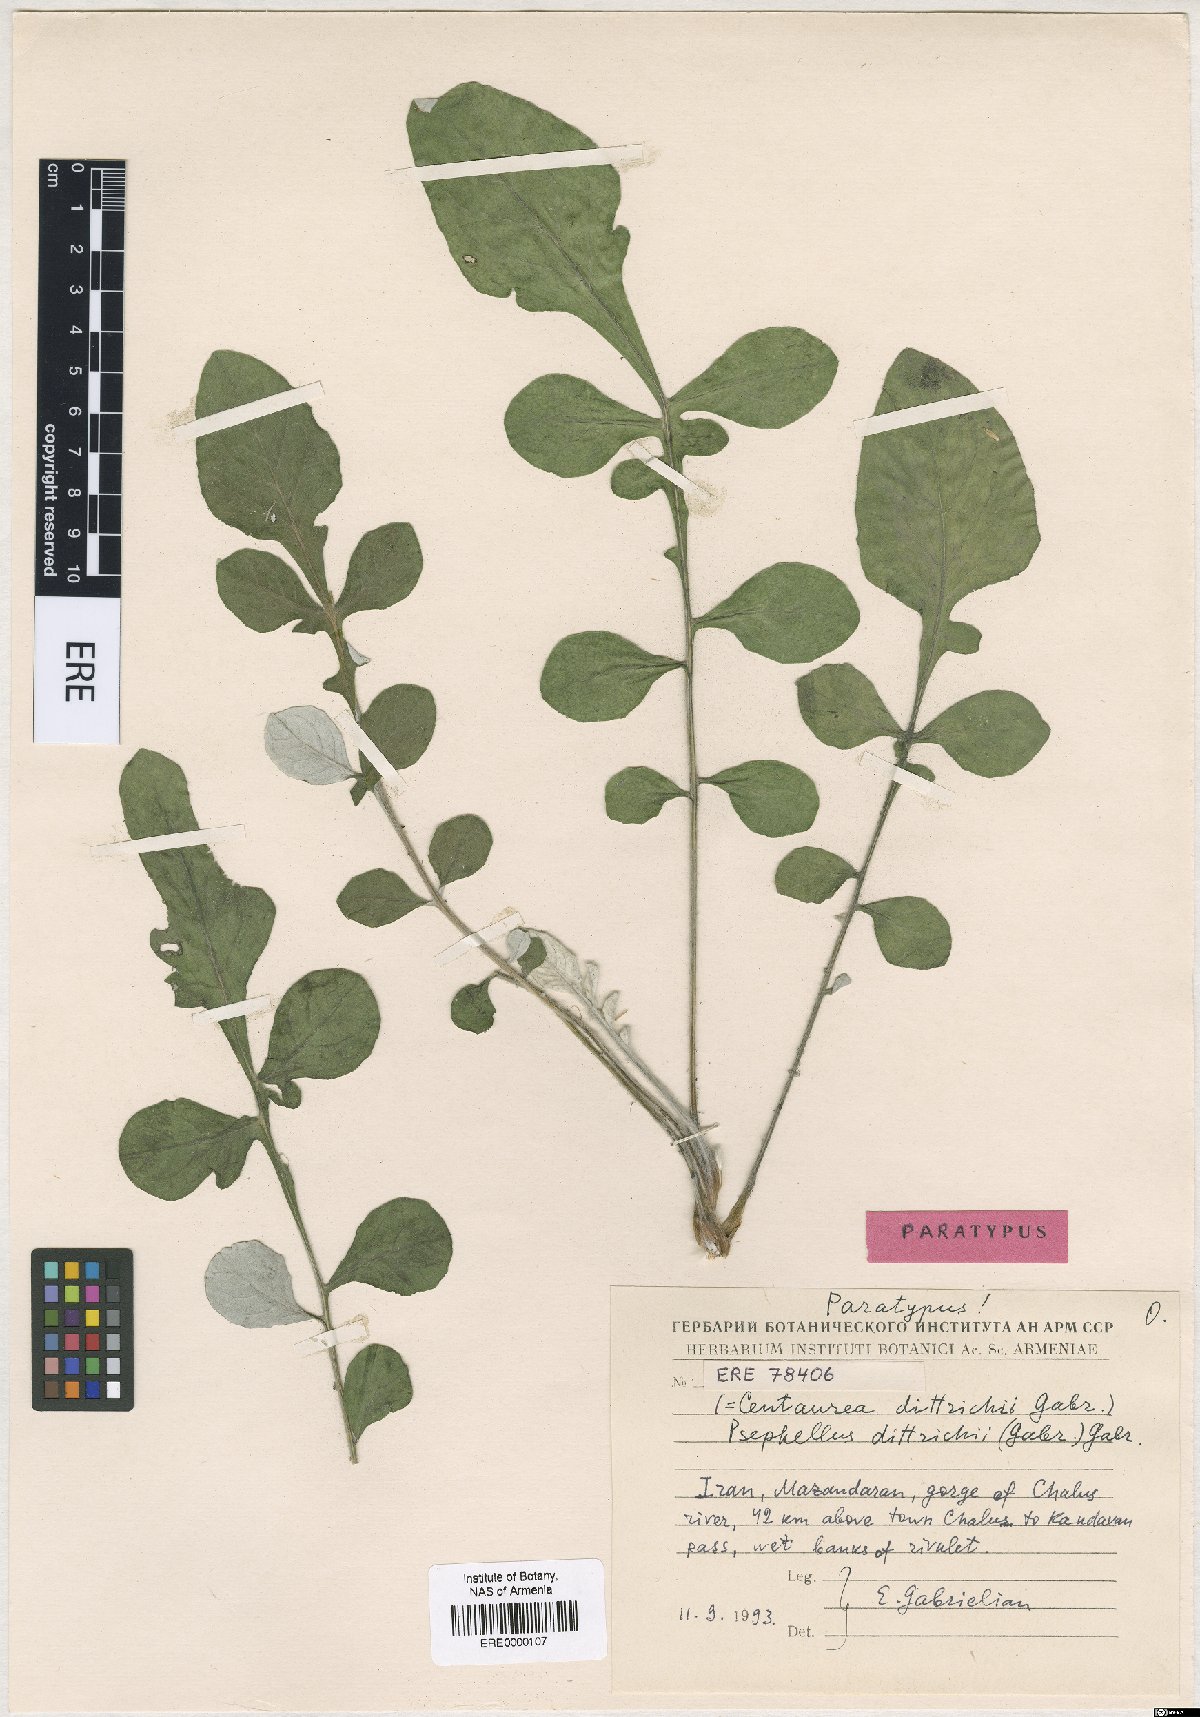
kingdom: Plantae
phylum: Tracheophyta
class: Magnoliopsida
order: Asterales
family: Asteraceae
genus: Psephellus
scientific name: Psephellus dittrichii
